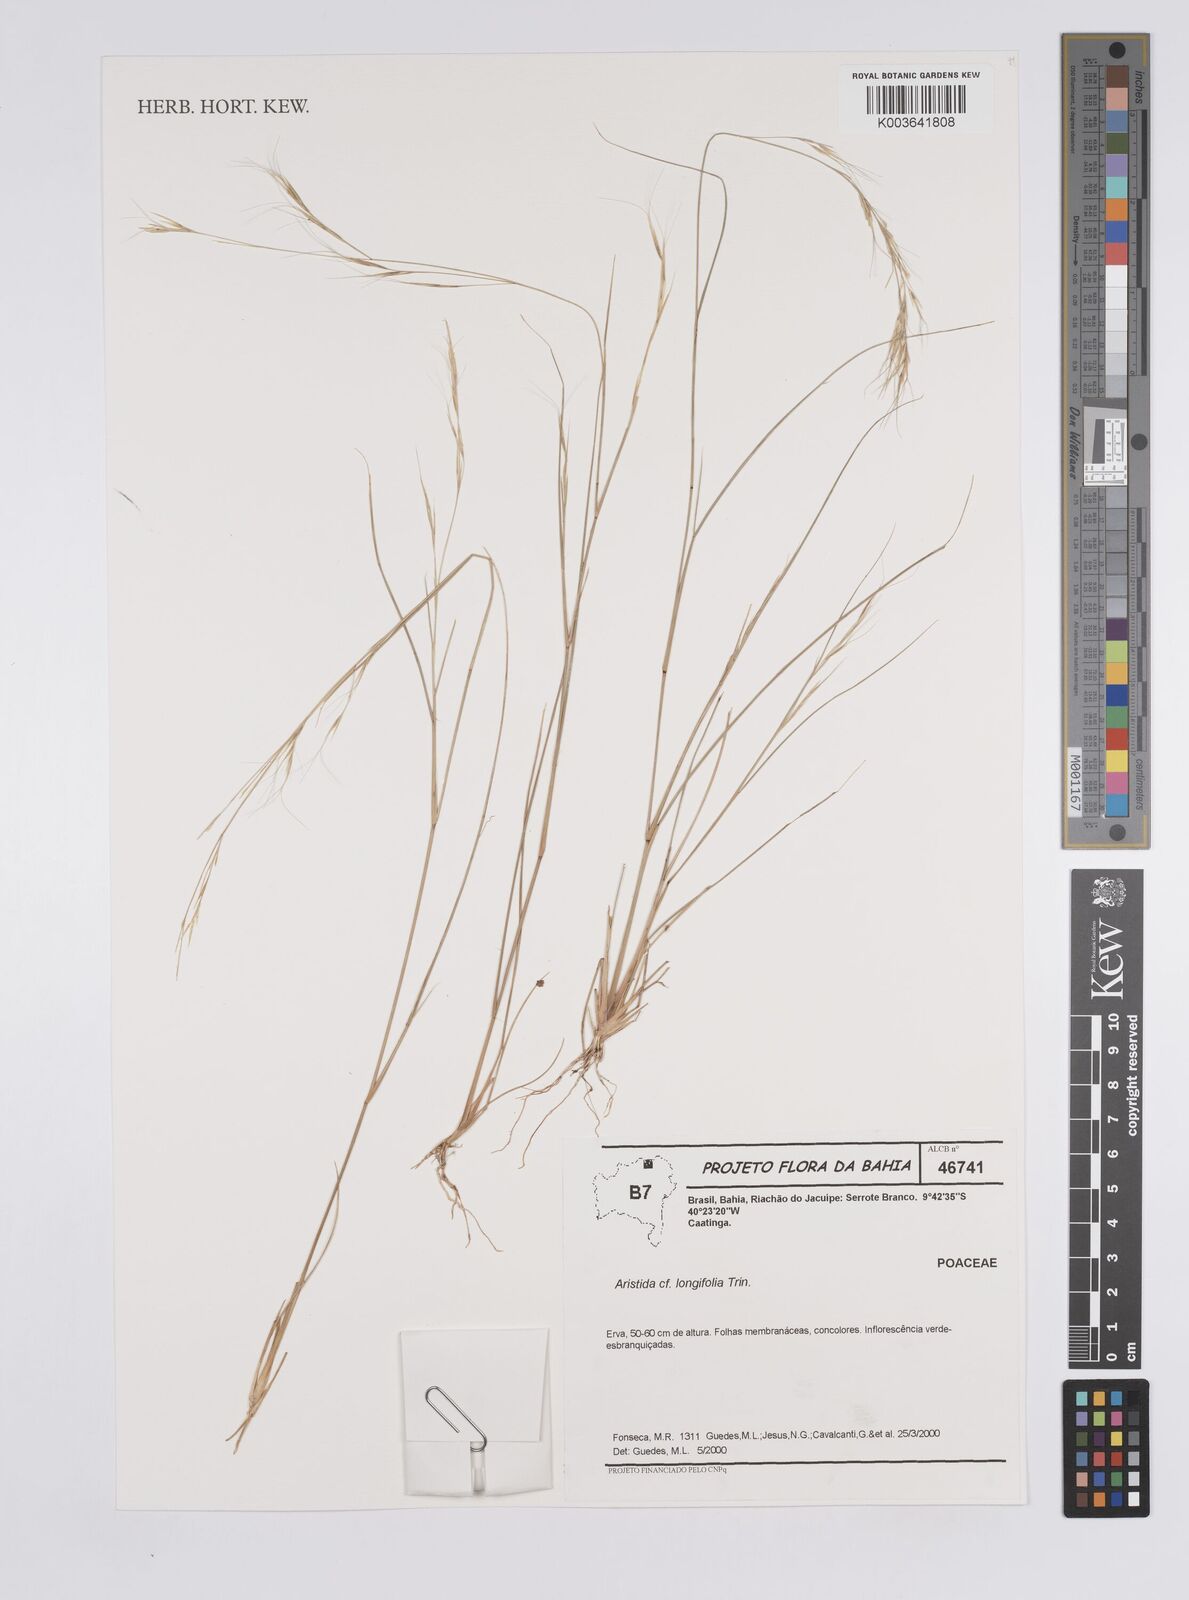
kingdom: Plantae
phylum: Tracheophyta
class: Liliopsida
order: Poales
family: Poaceae
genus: Aristida
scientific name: Aristida torta
